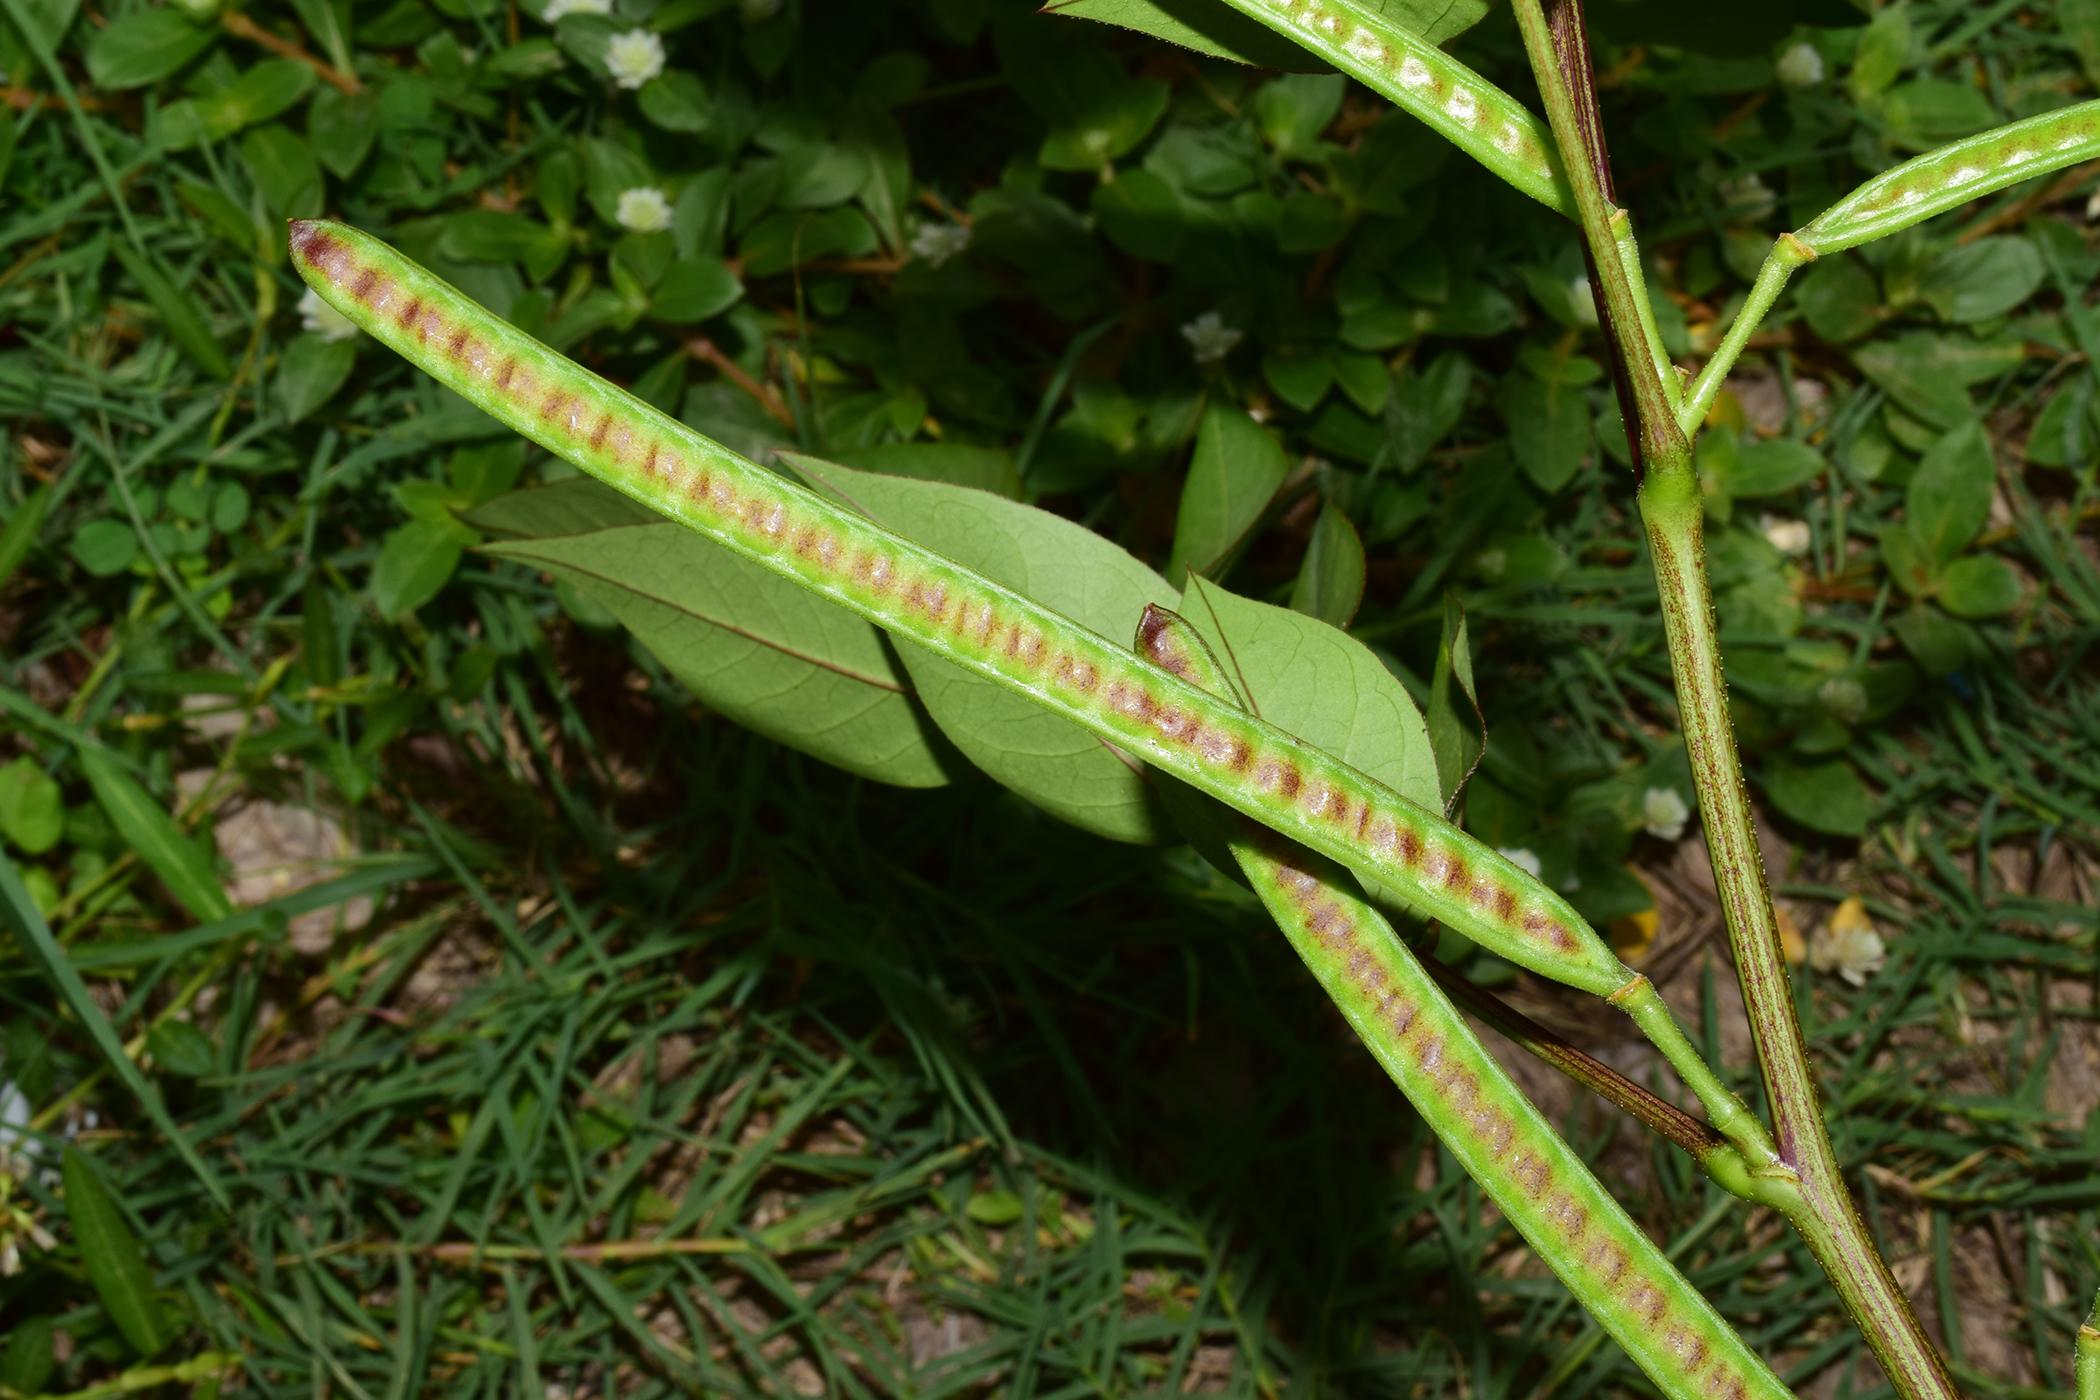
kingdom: Plantae
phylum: Tracheophyta
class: Magnoliopsida
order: Fabales
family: Fabaceae
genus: Senna
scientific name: Senna occidentalis
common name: Septicweed
